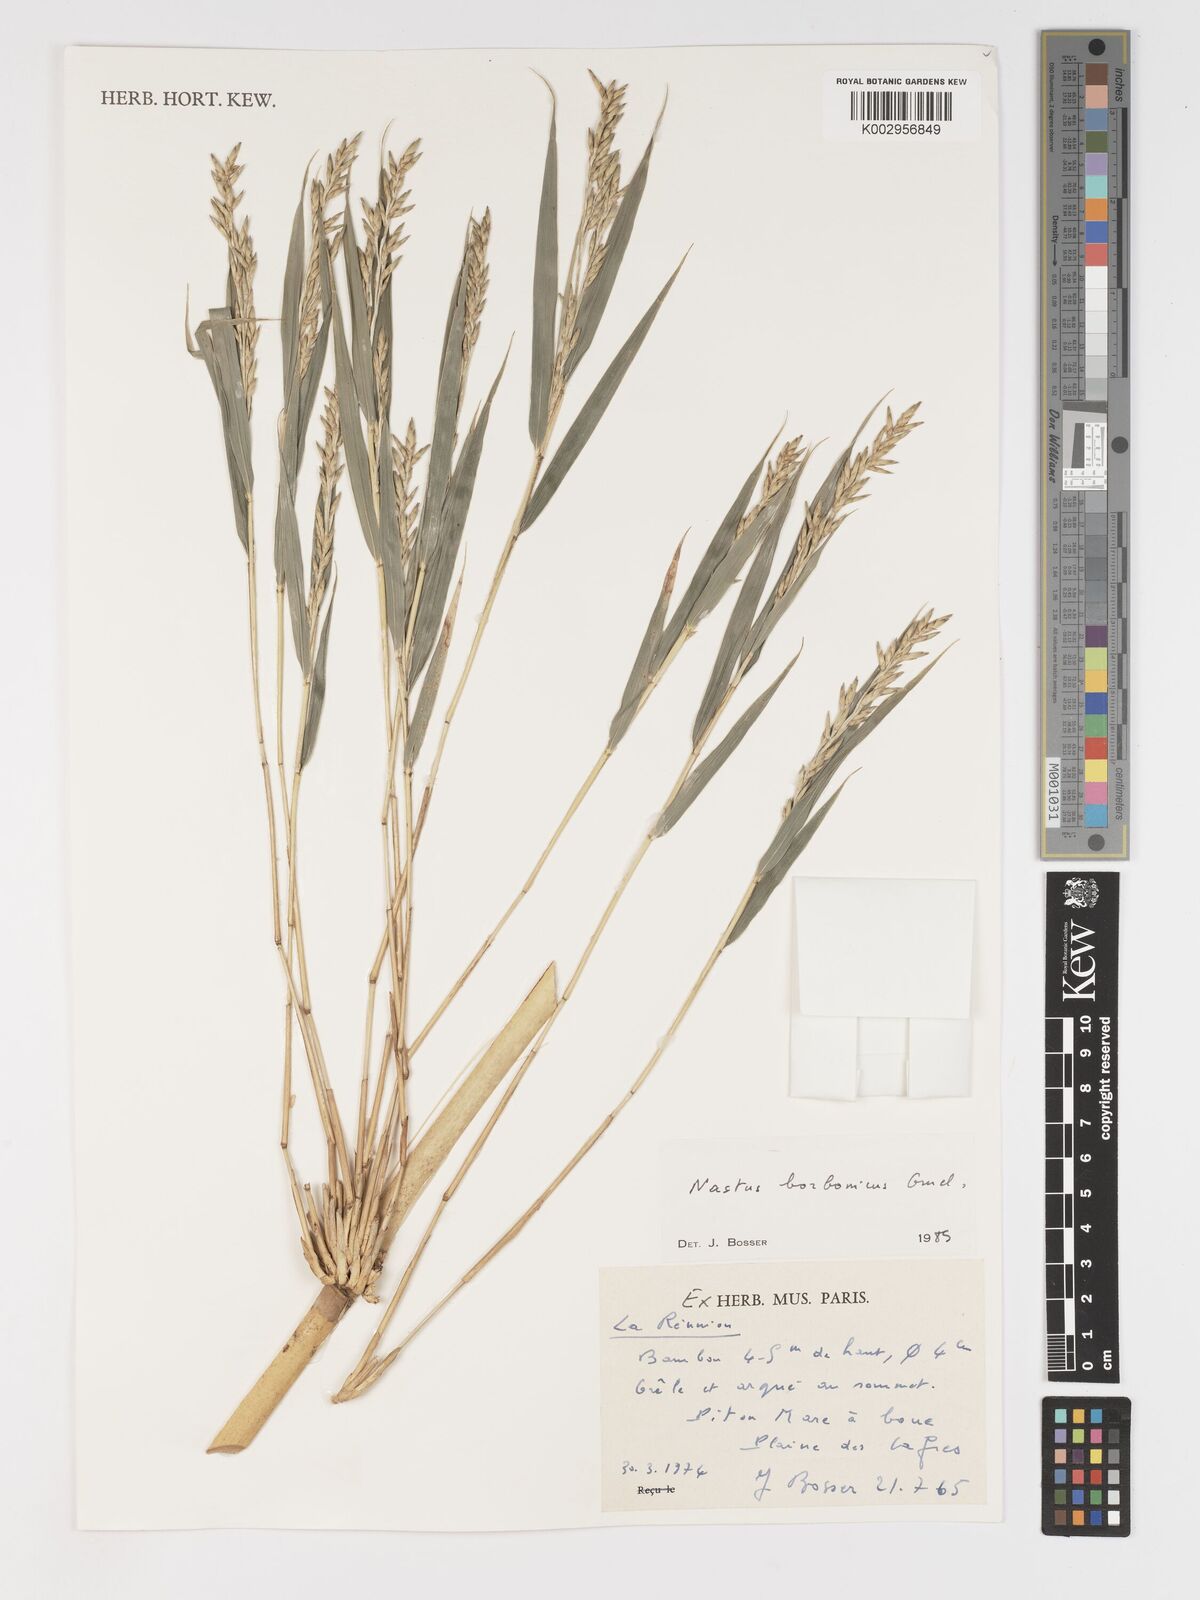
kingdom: Plantae
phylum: Tracheophyta
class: Liliopsida
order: Poales
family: Poaceae
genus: Nastus
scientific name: Nastus borbonicus
